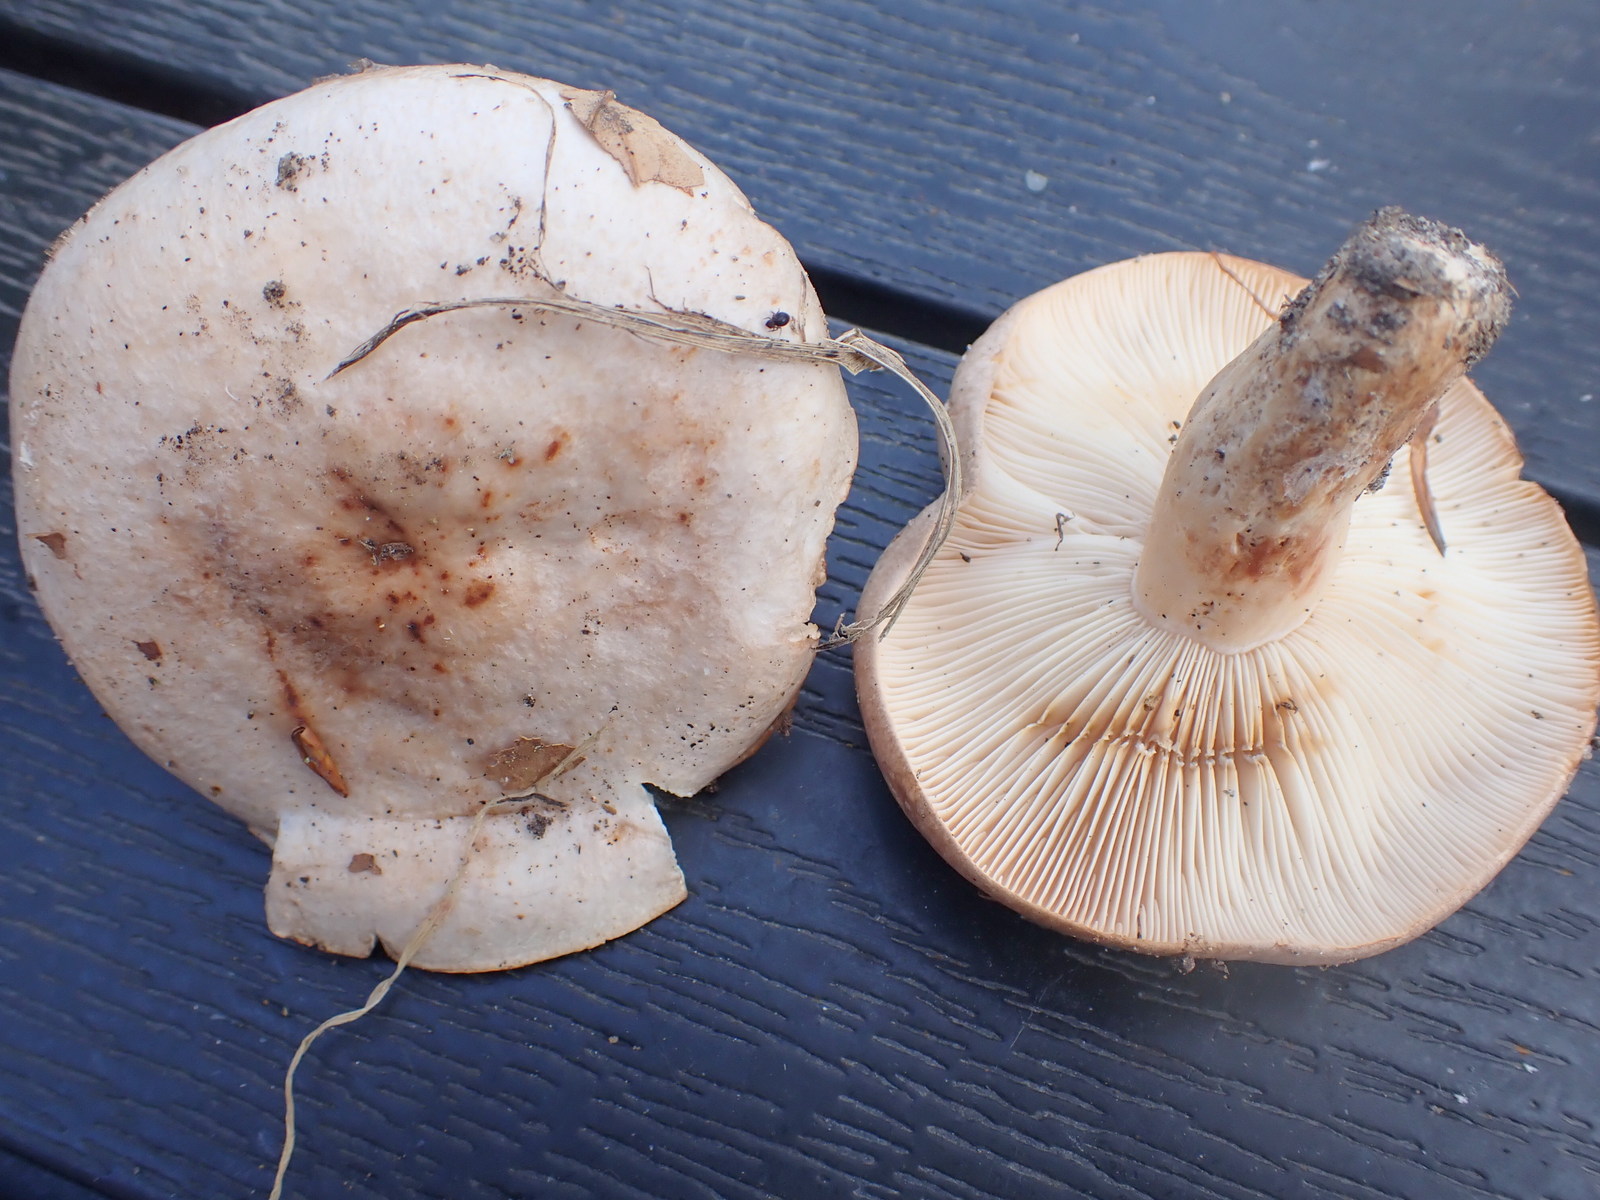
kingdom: Fungi
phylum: Basidiomycota
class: Agaricomycetes
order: Russulales
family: Russulaceae
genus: Lactarius
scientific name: Lactarius pallidus
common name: bleg mælkehat
